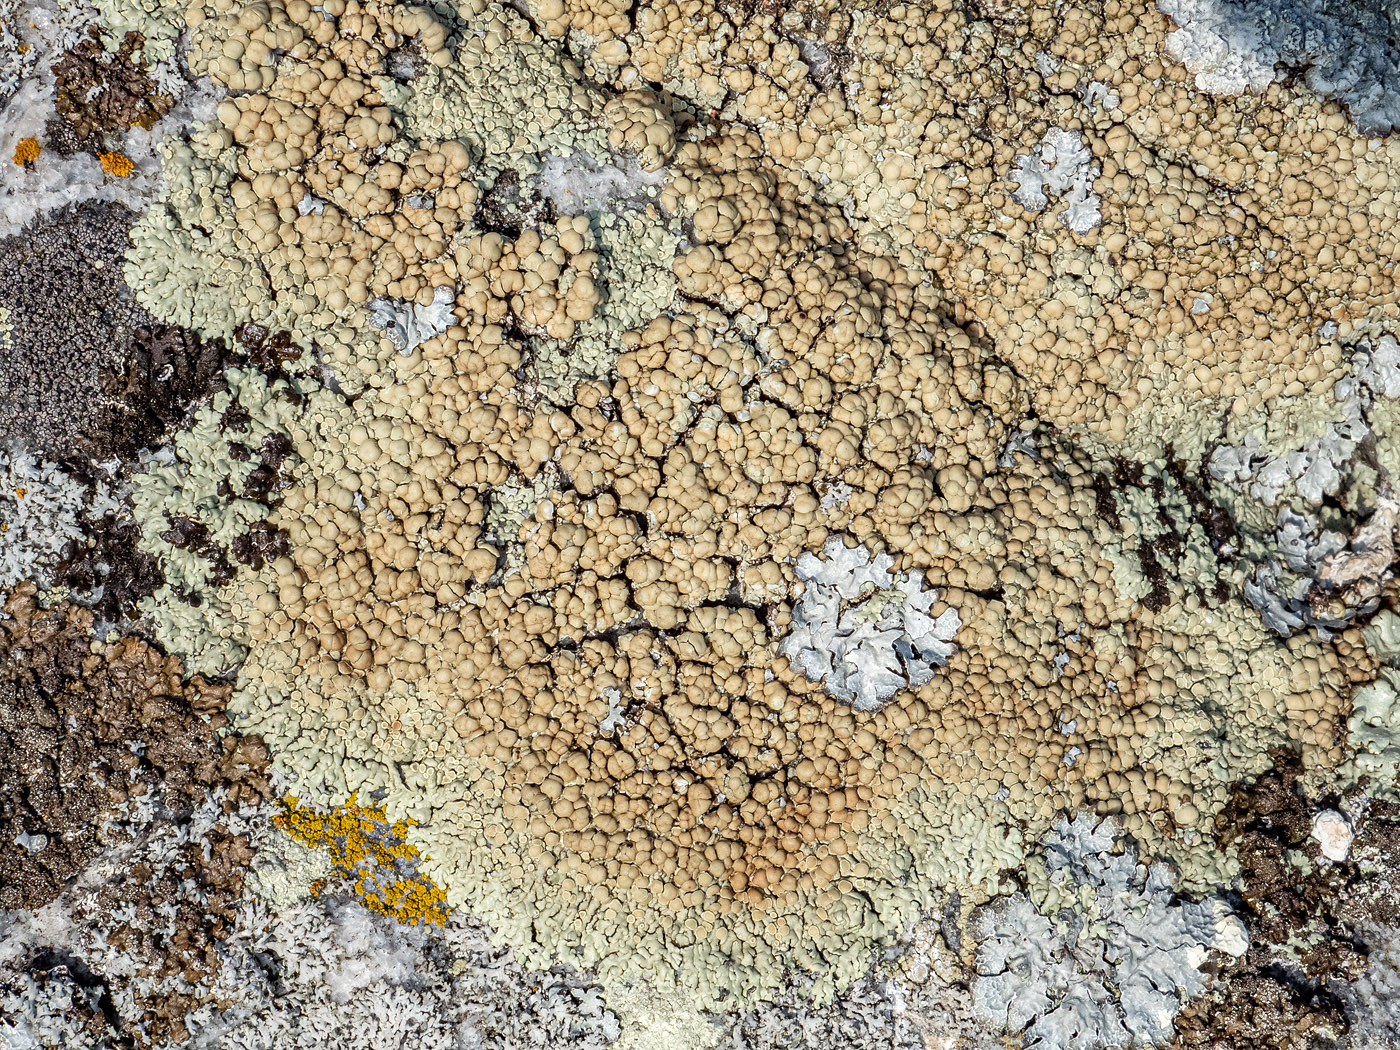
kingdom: Fungi
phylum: Ascomycota
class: Lecanoromycetes
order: Lecanorales
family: Lecanoraceae
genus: Protoparmeliopsis
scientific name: Protoparmeliopsis muralis
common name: randfliget kantskivelav
